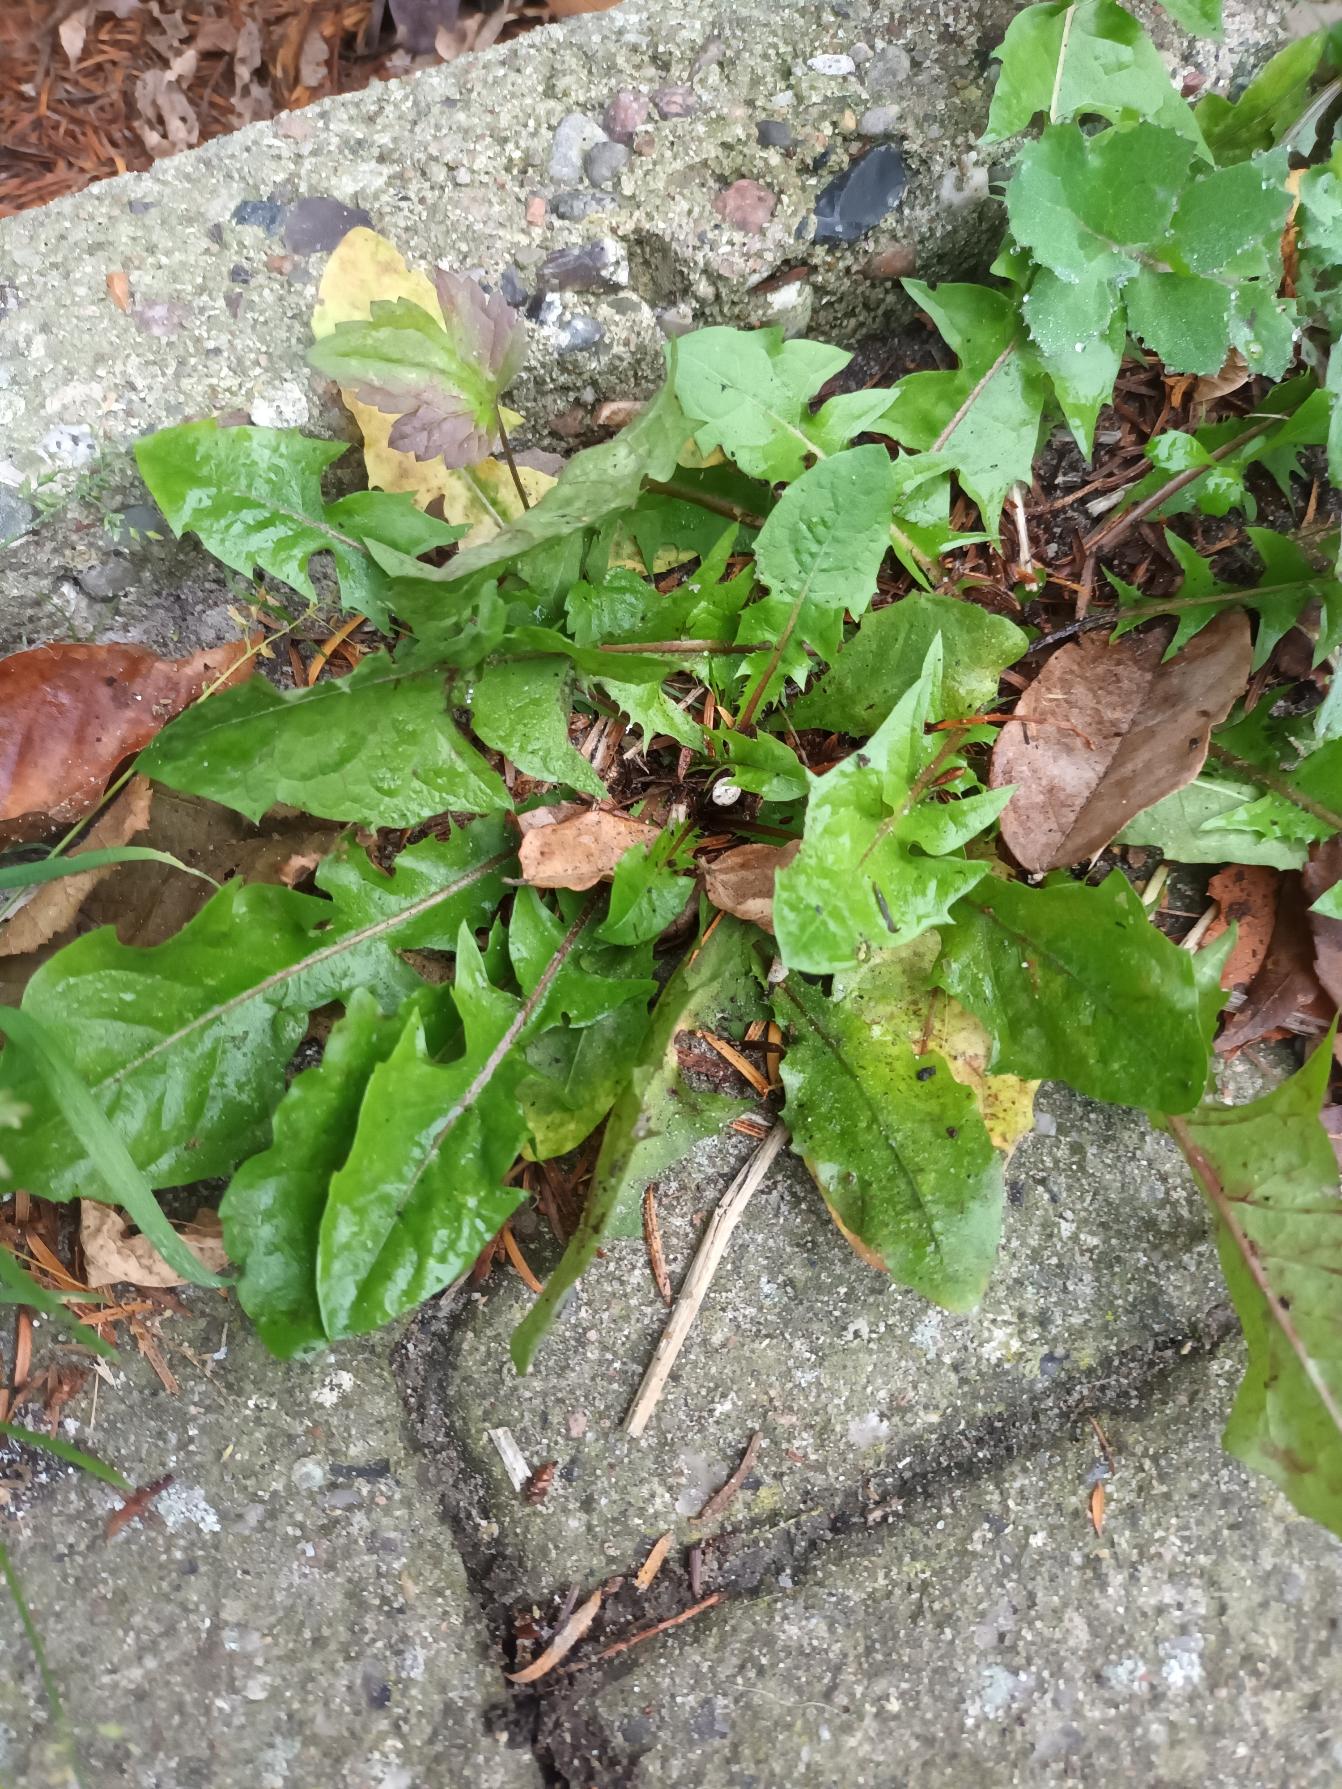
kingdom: Plantae
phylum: Tracheophyta
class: Magnoliopsida
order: Asterales
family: Asteraceae
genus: Taraxacum
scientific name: Taraxacum
